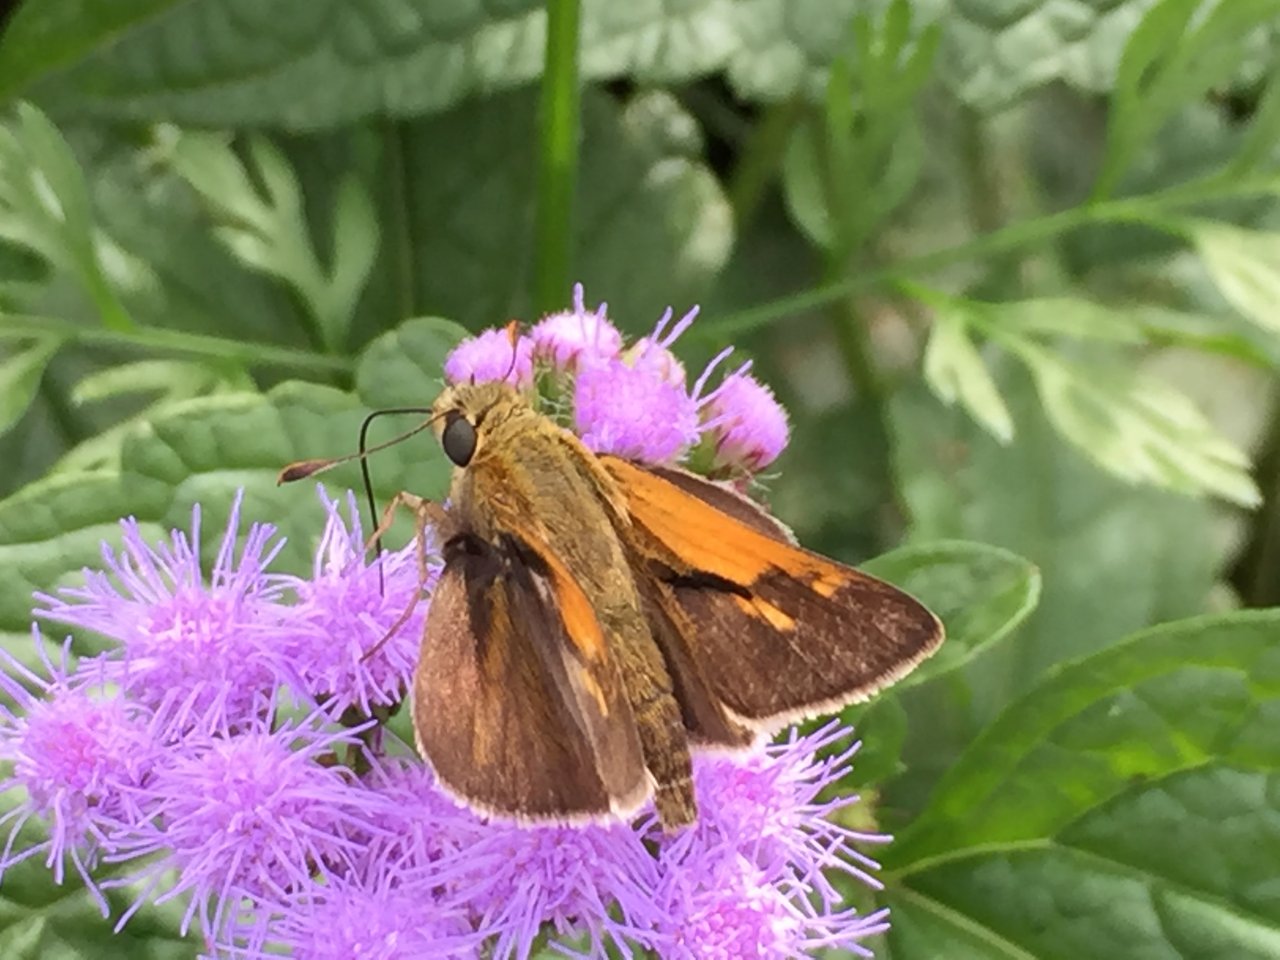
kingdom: Animalia
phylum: Arthropoda
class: Insecta
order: Lepidoptera
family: Hesperiidae
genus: Polites
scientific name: Polites themistocles
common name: Tawny-edged Skipper
